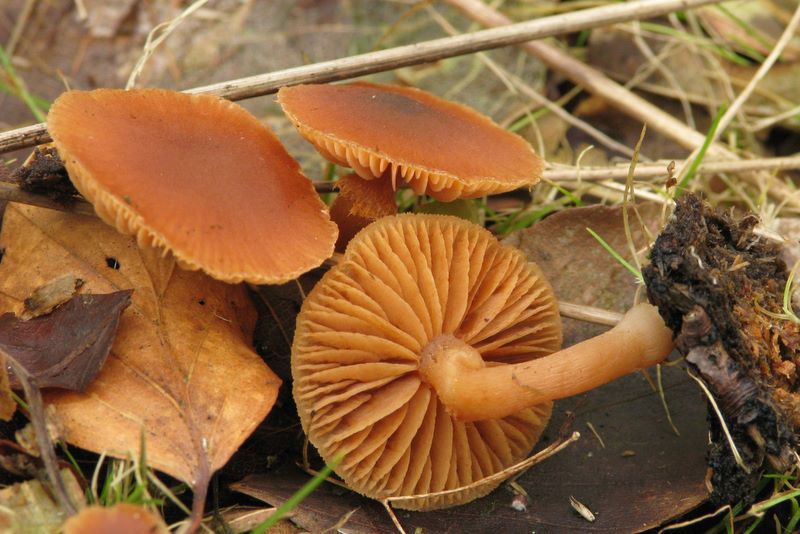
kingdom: Fungi
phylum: Basidiomycota
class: Agaricomycetes
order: Agaricales
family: Tubariaceae
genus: Tubaria
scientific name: Tubaria furfuracea
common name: kliddet fnughat
